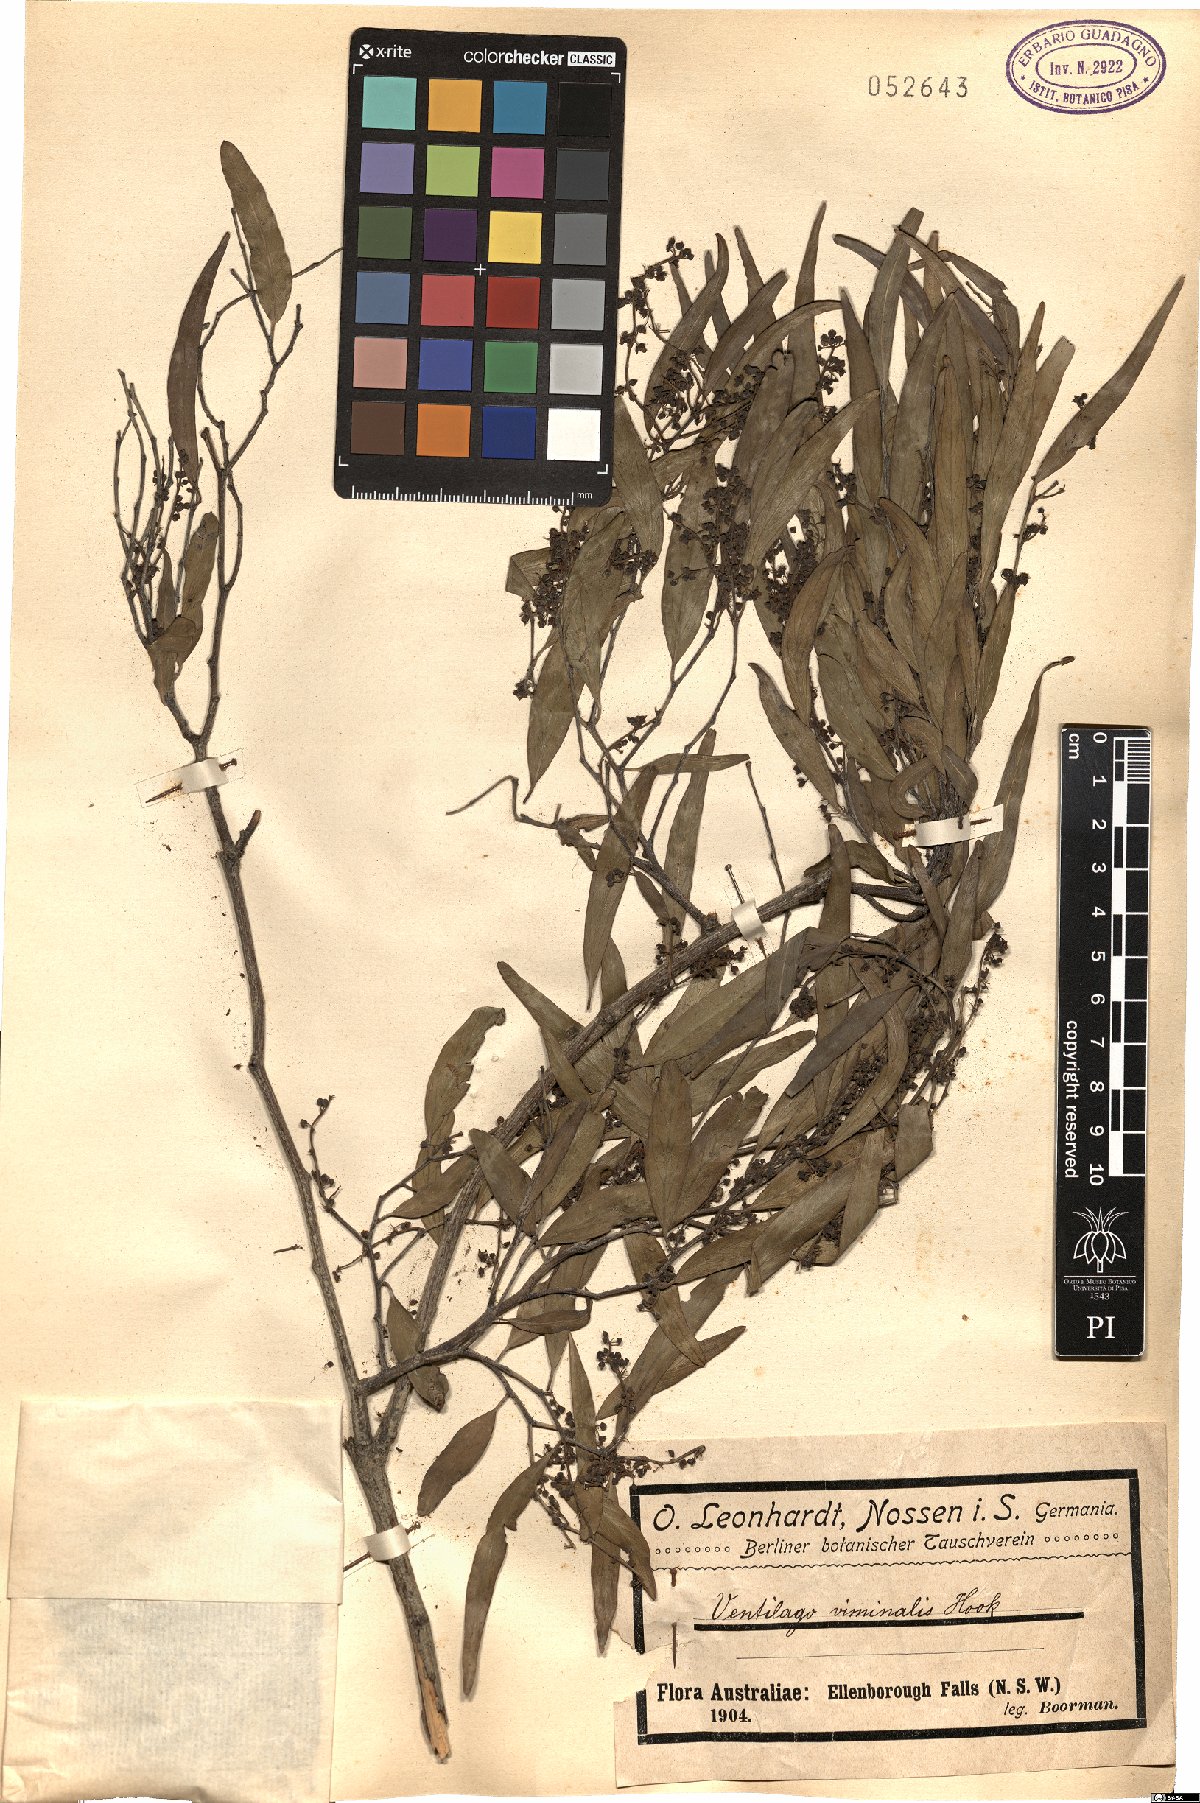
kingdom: Plantae
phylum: Tracheophyta
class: Magnoliopsida
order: Rosales
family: Rhamnaceae
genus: Ventilago
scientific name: Ventilago viminalis
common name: Medicine-bark
